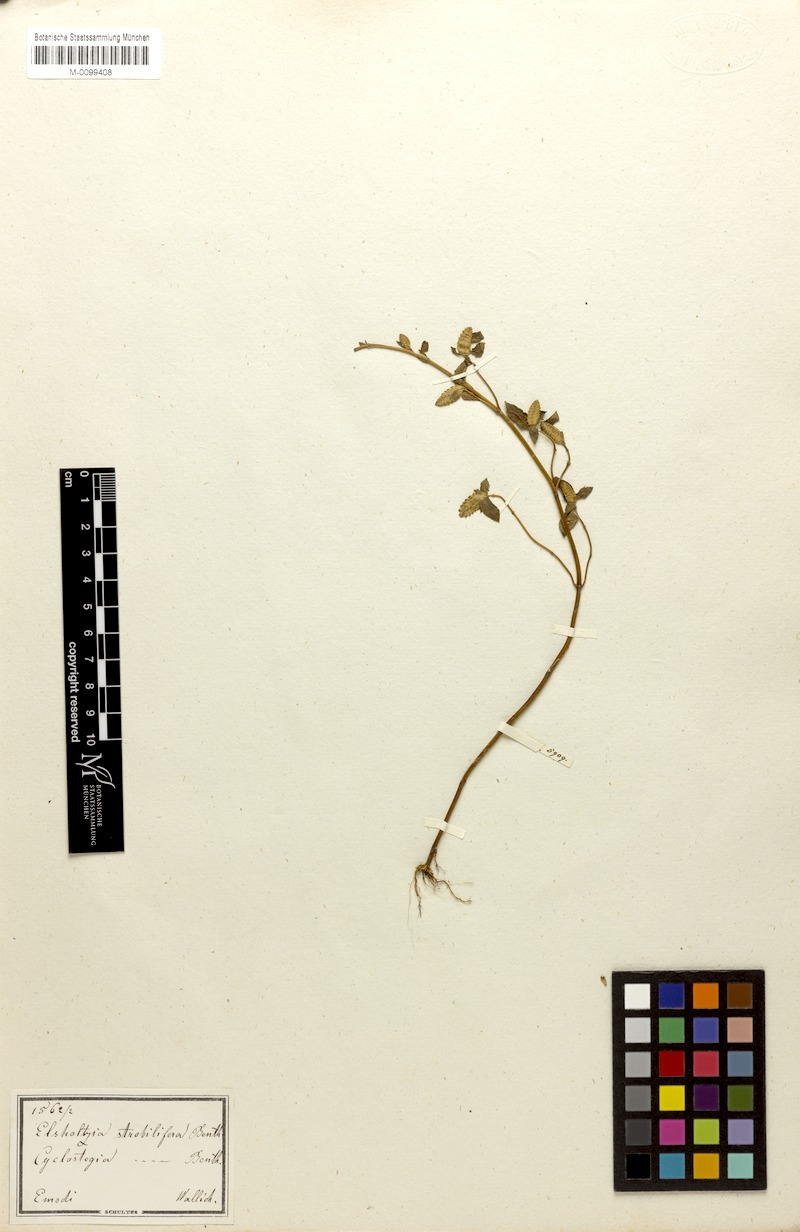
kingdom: Plantae
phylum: Tracheophyta
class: Magnoliopsida
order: Lamiales
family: Lamiaceae
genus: Elsholtzia
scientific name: Elsholtzia strobilifera
